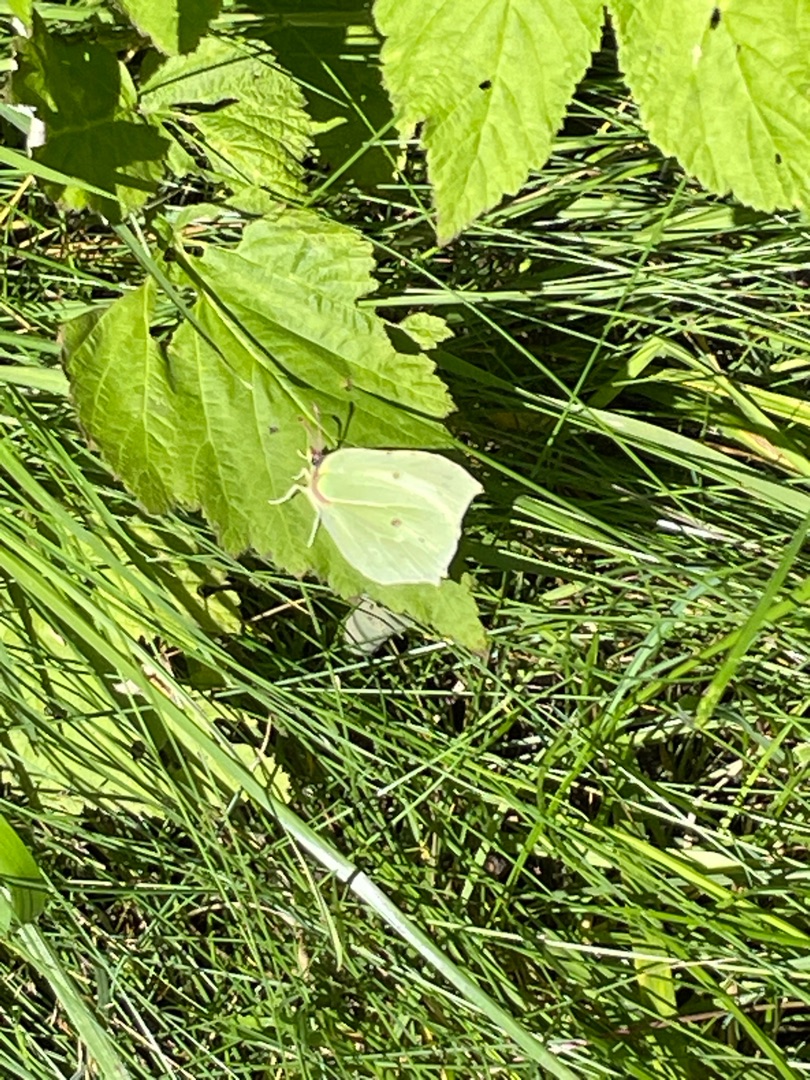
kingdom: Animalia
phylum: Arthropoda
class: Insecta
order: Lepidoptera
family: Pieridae
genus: Gonepteryx
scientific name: Gonepteryx rhamni
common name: Citronsommerfugl
